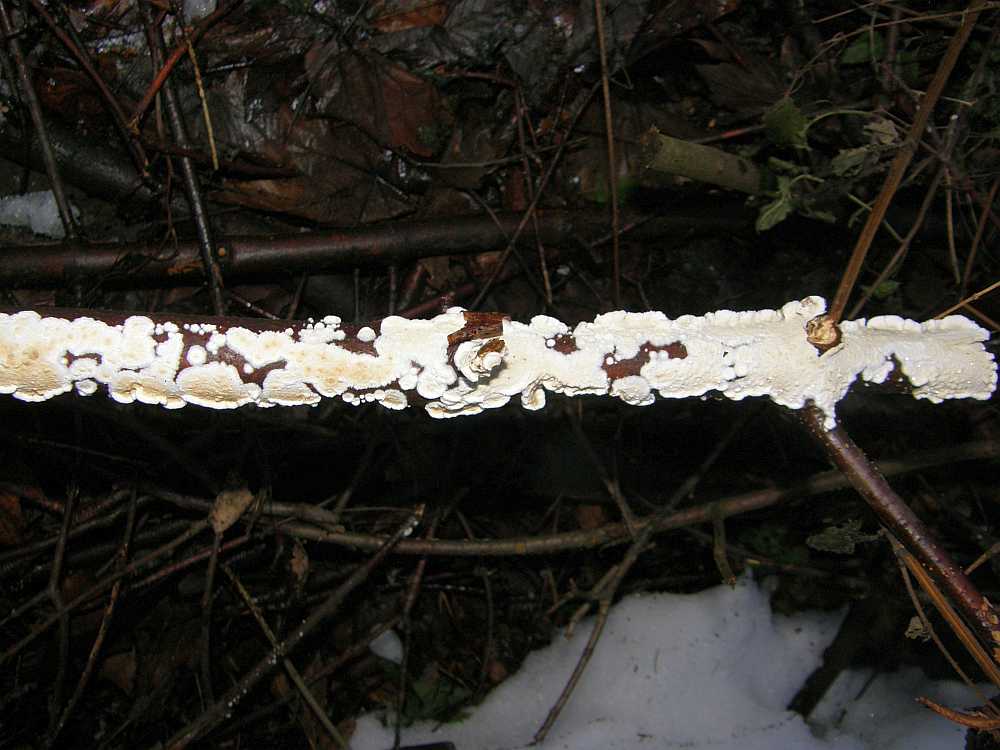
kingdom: Fungi
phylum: Basidiomycota
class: Agaricomycetes
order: Polyporales
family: Irpicaceae
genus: Byssomerulius
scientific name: Byssomerulius corium
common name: læder-åresvamp
